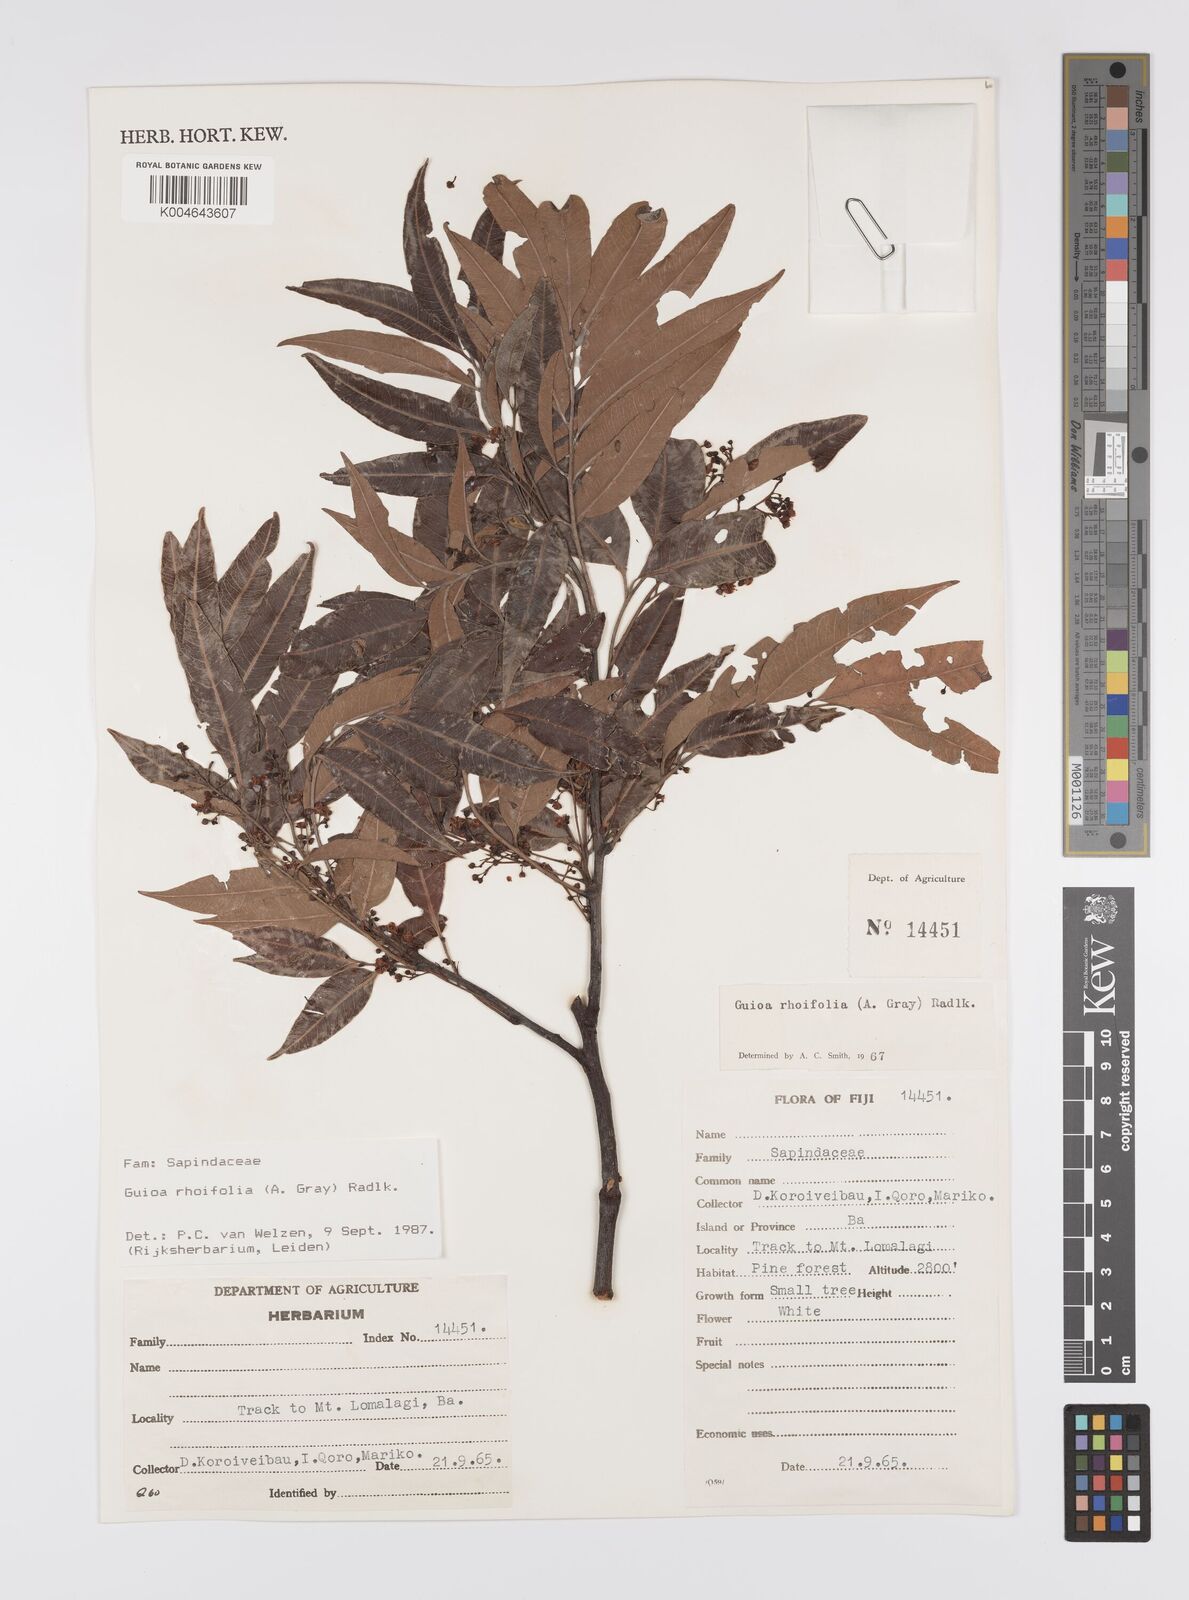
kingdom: Plantae
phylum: Tracheophyta
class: Magnoliopsida
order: Sapindales
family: Sapindaceae
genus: Guioa
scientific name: Guioa rhoifolia
